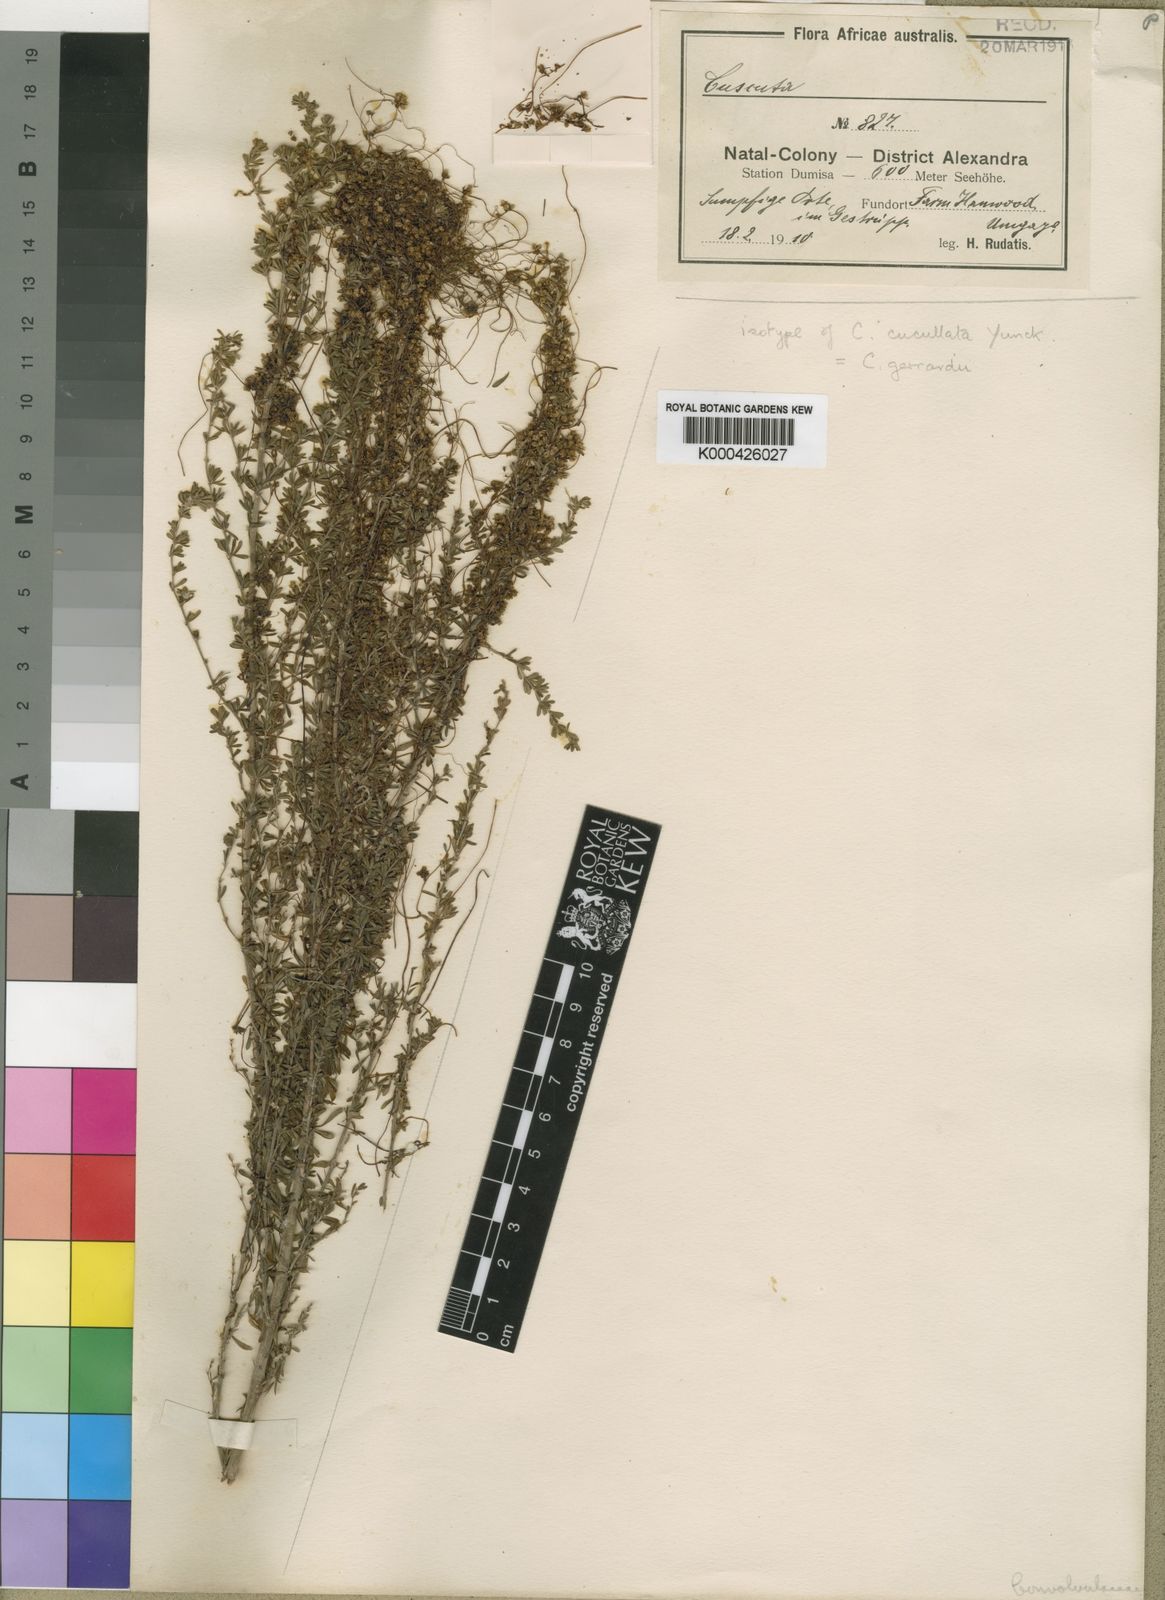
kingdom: Plantae
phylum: Tracheophyta
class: Magnoliopsida
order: Solanales
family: Convolvulaceae
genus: Cuscuta
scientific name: Cuscuta gerrardii
